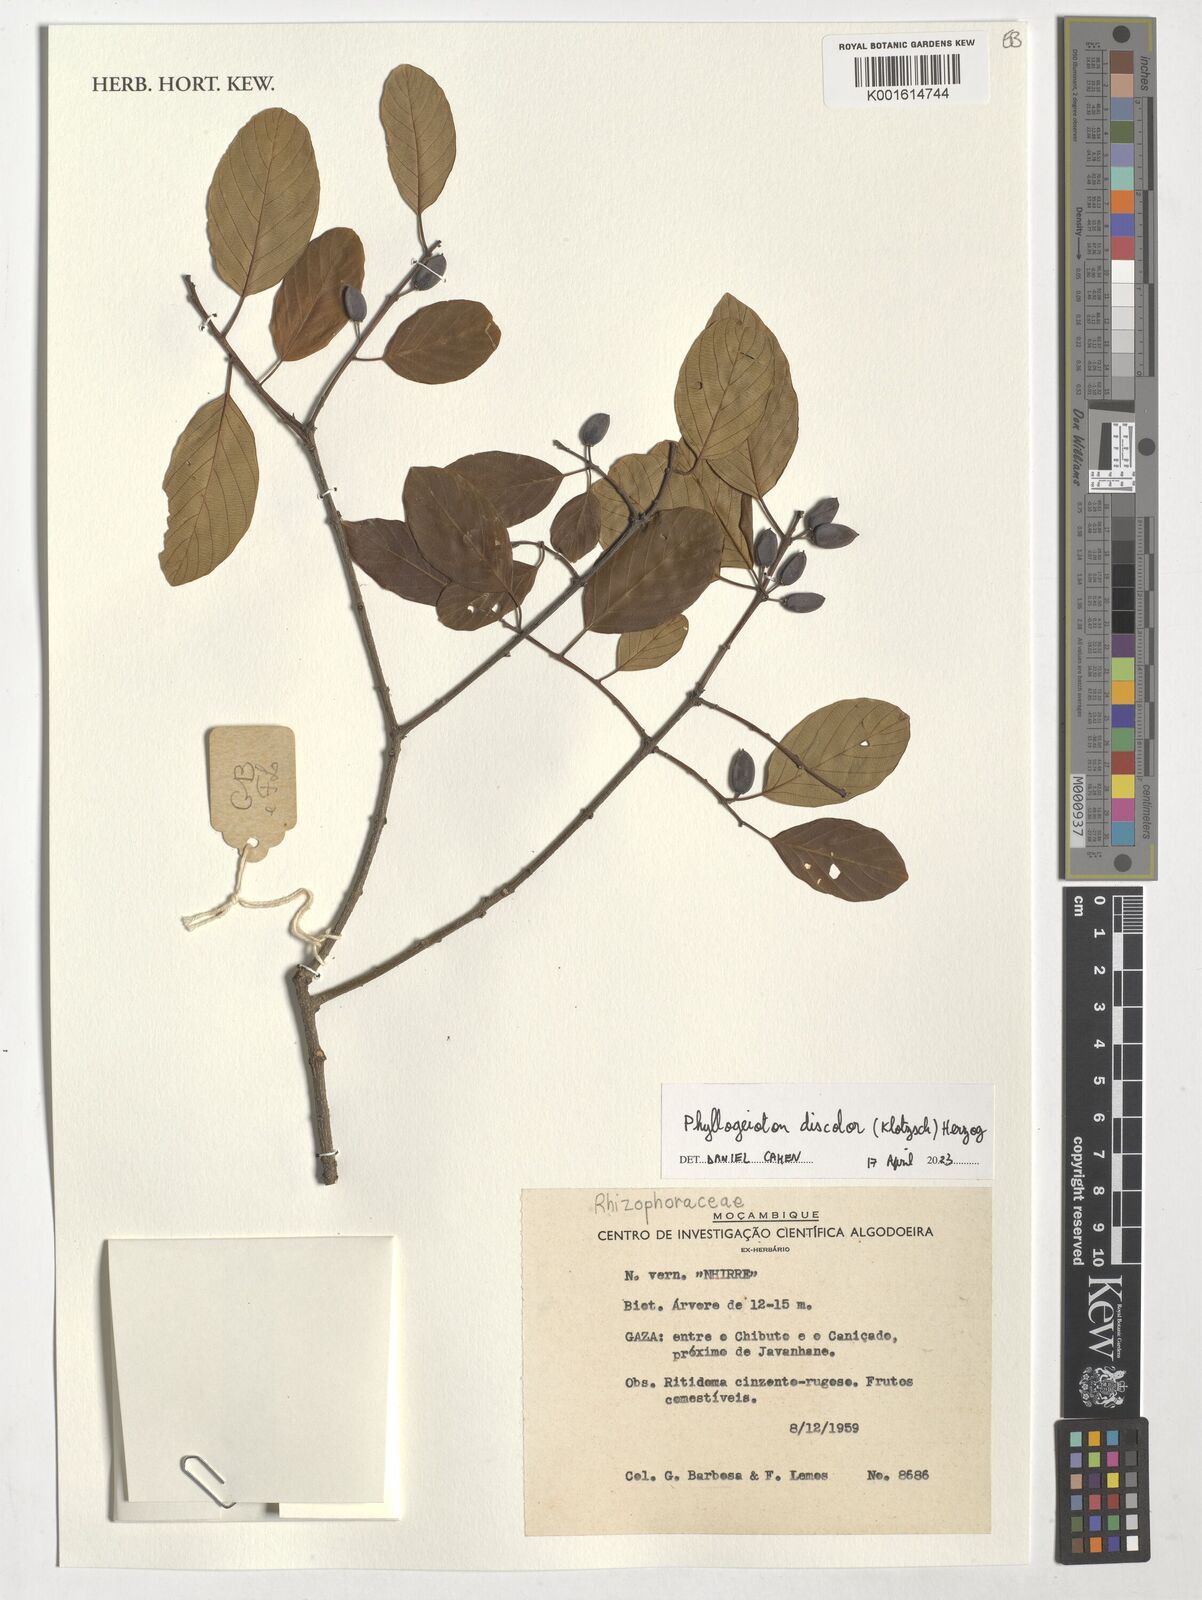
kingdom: Plantae
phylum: Tracheophyta
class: Magnoliopsida
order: Rosales
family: Rhamnaceae
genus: Phyllogeiton
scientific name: Phyllogeiton discolor
